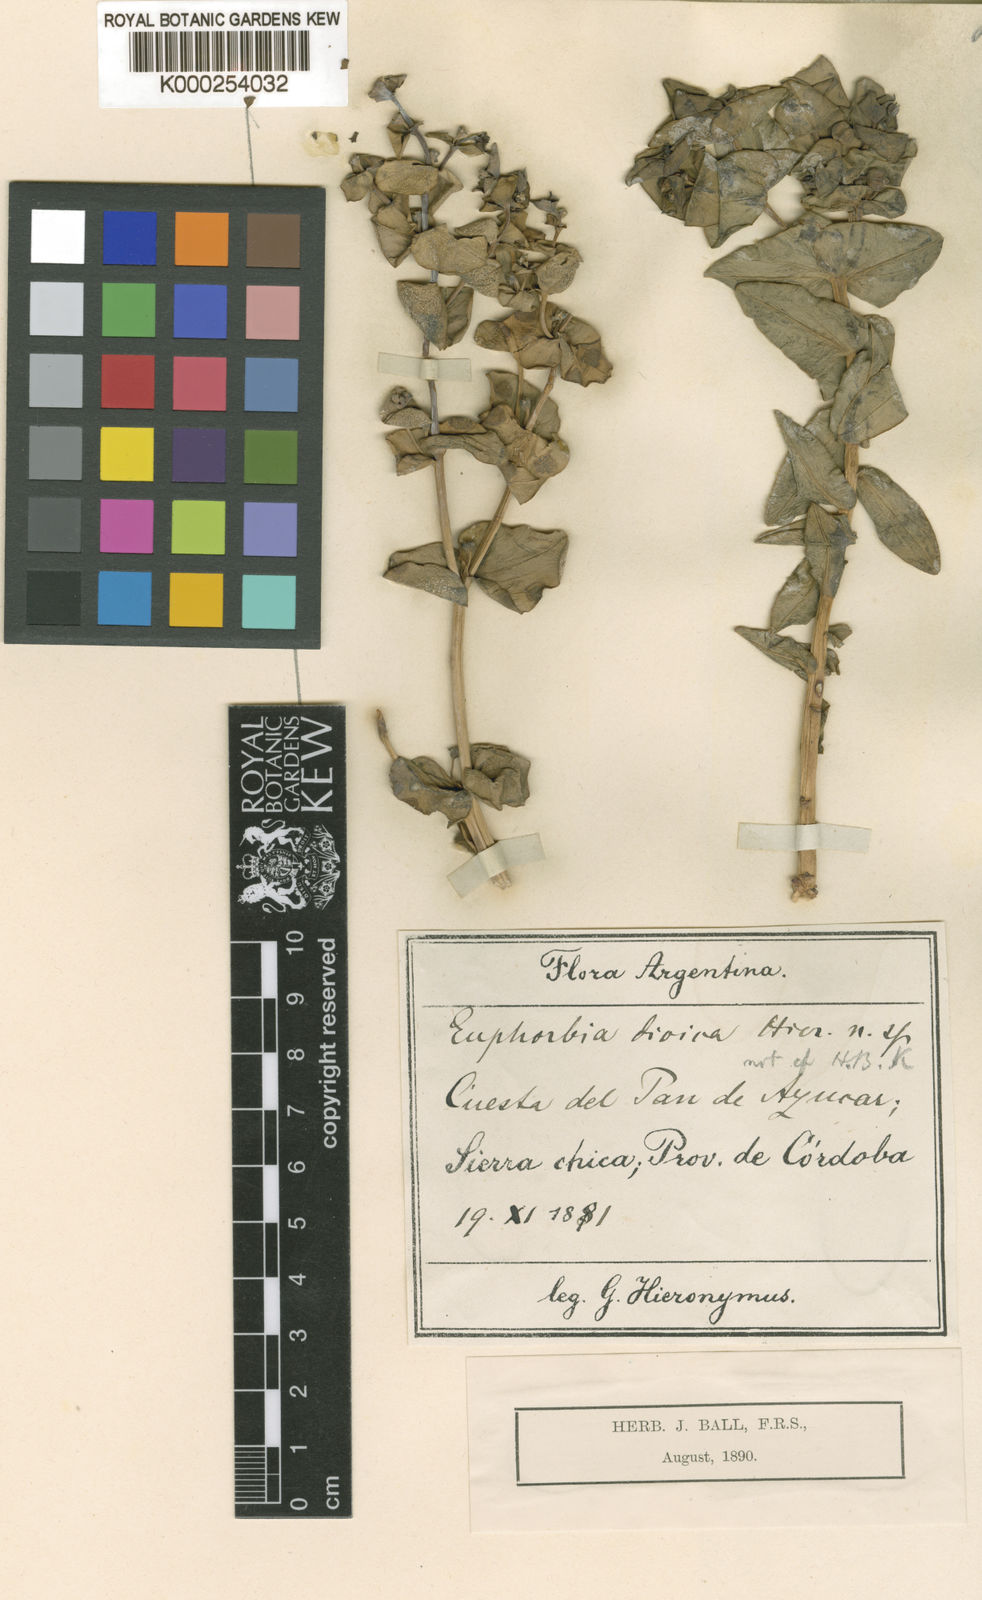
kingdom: Plantae
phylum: Tracheophyta
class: Magnoliopsida
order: Malpighiales
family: Euphorbiaceae
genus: Euphorbia
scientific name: Euphorbia hieronymi
